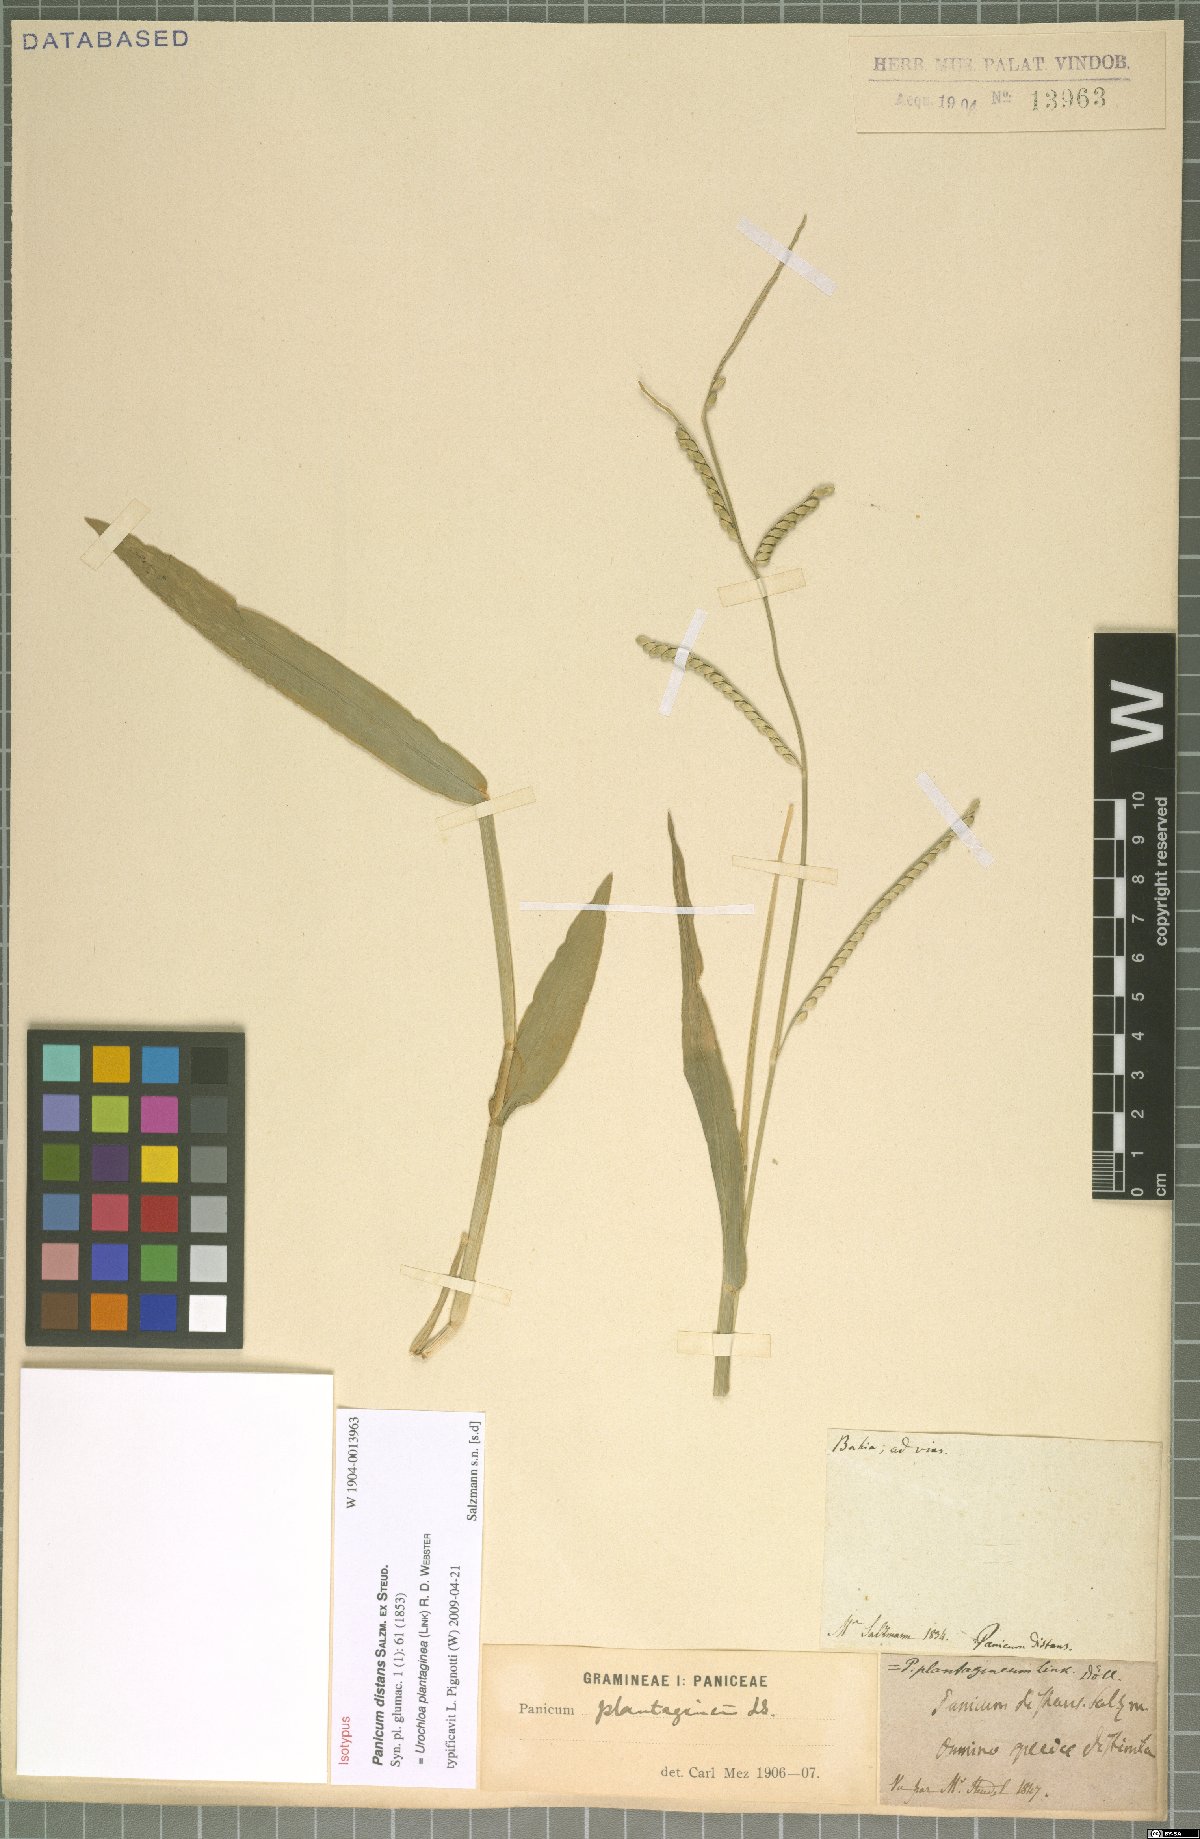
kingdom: Plantae
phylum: Tracheophyta
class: Liliopsida
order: Poales
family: Poaceae
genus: Urochloa
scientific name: Urochloa plantaginea
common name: Plantain signalgrass
